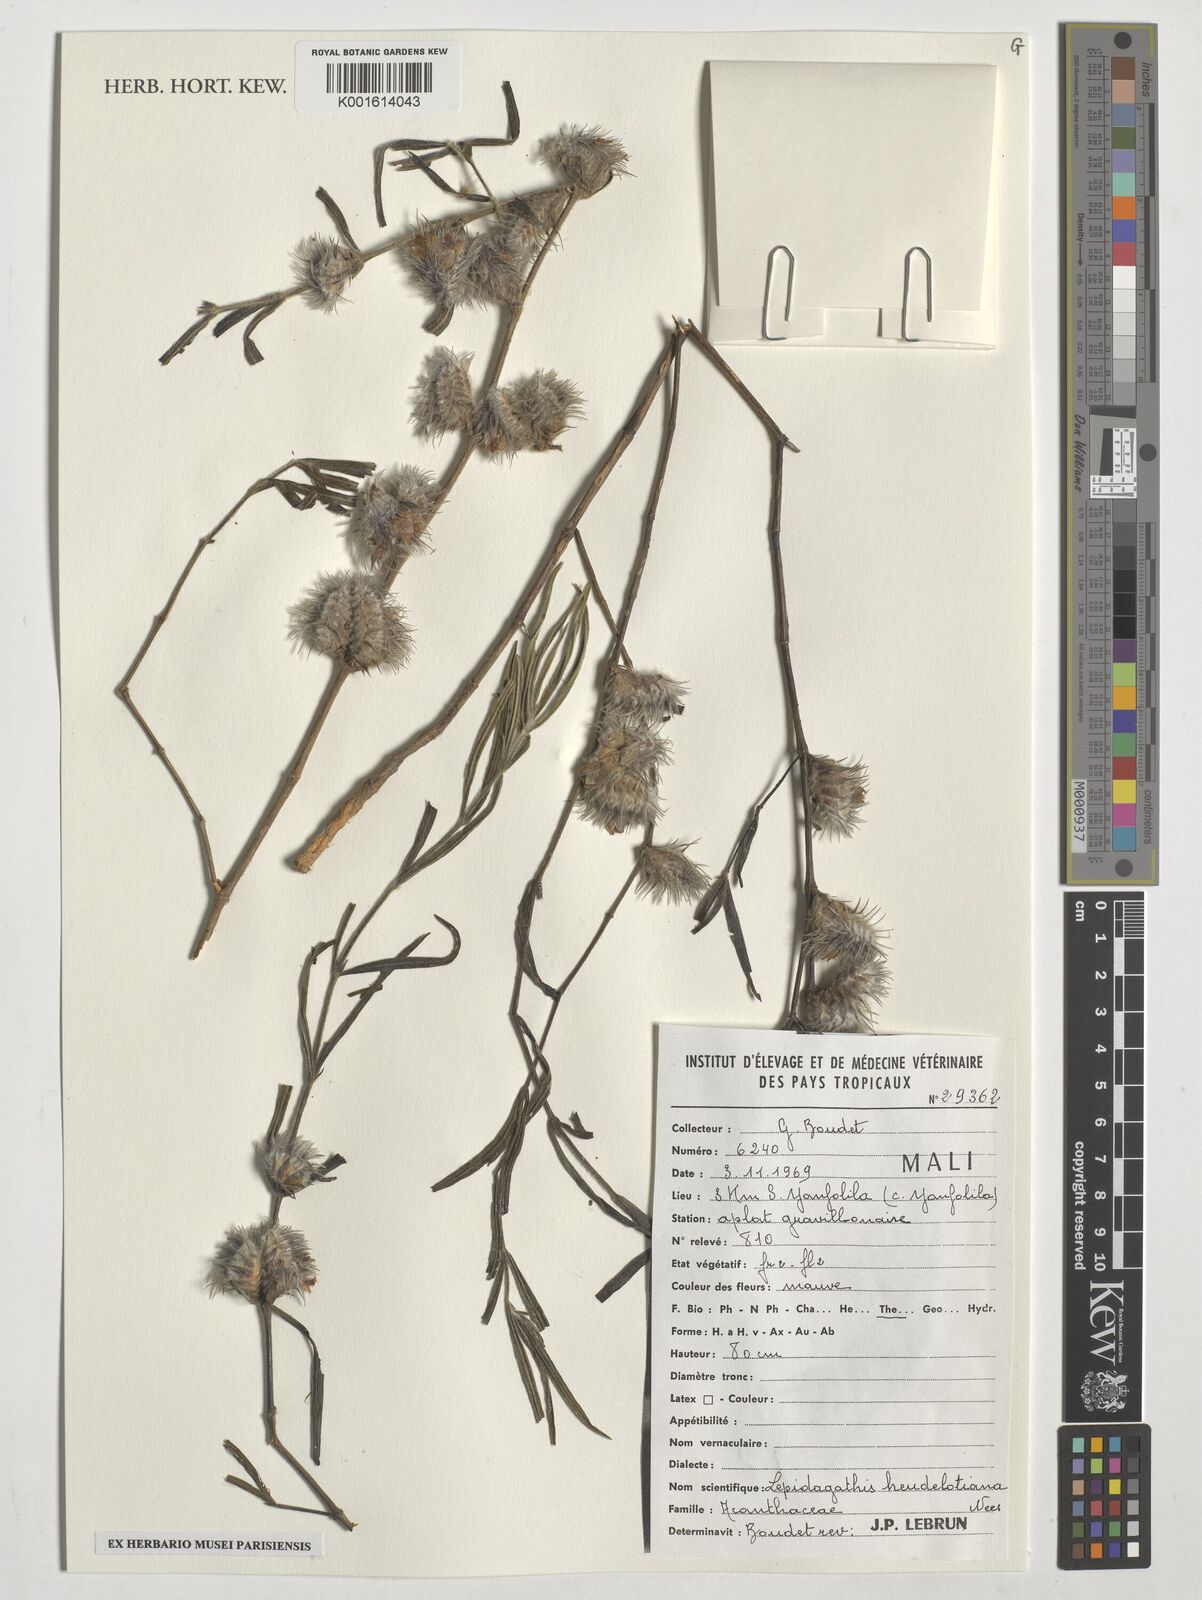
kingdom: Plantae
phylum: Tracheophyta
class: Magnoliopsida
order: Lamiales
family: Acanthaceae
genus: Lepidagathis
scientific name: Lepidagathis heudelotiana
